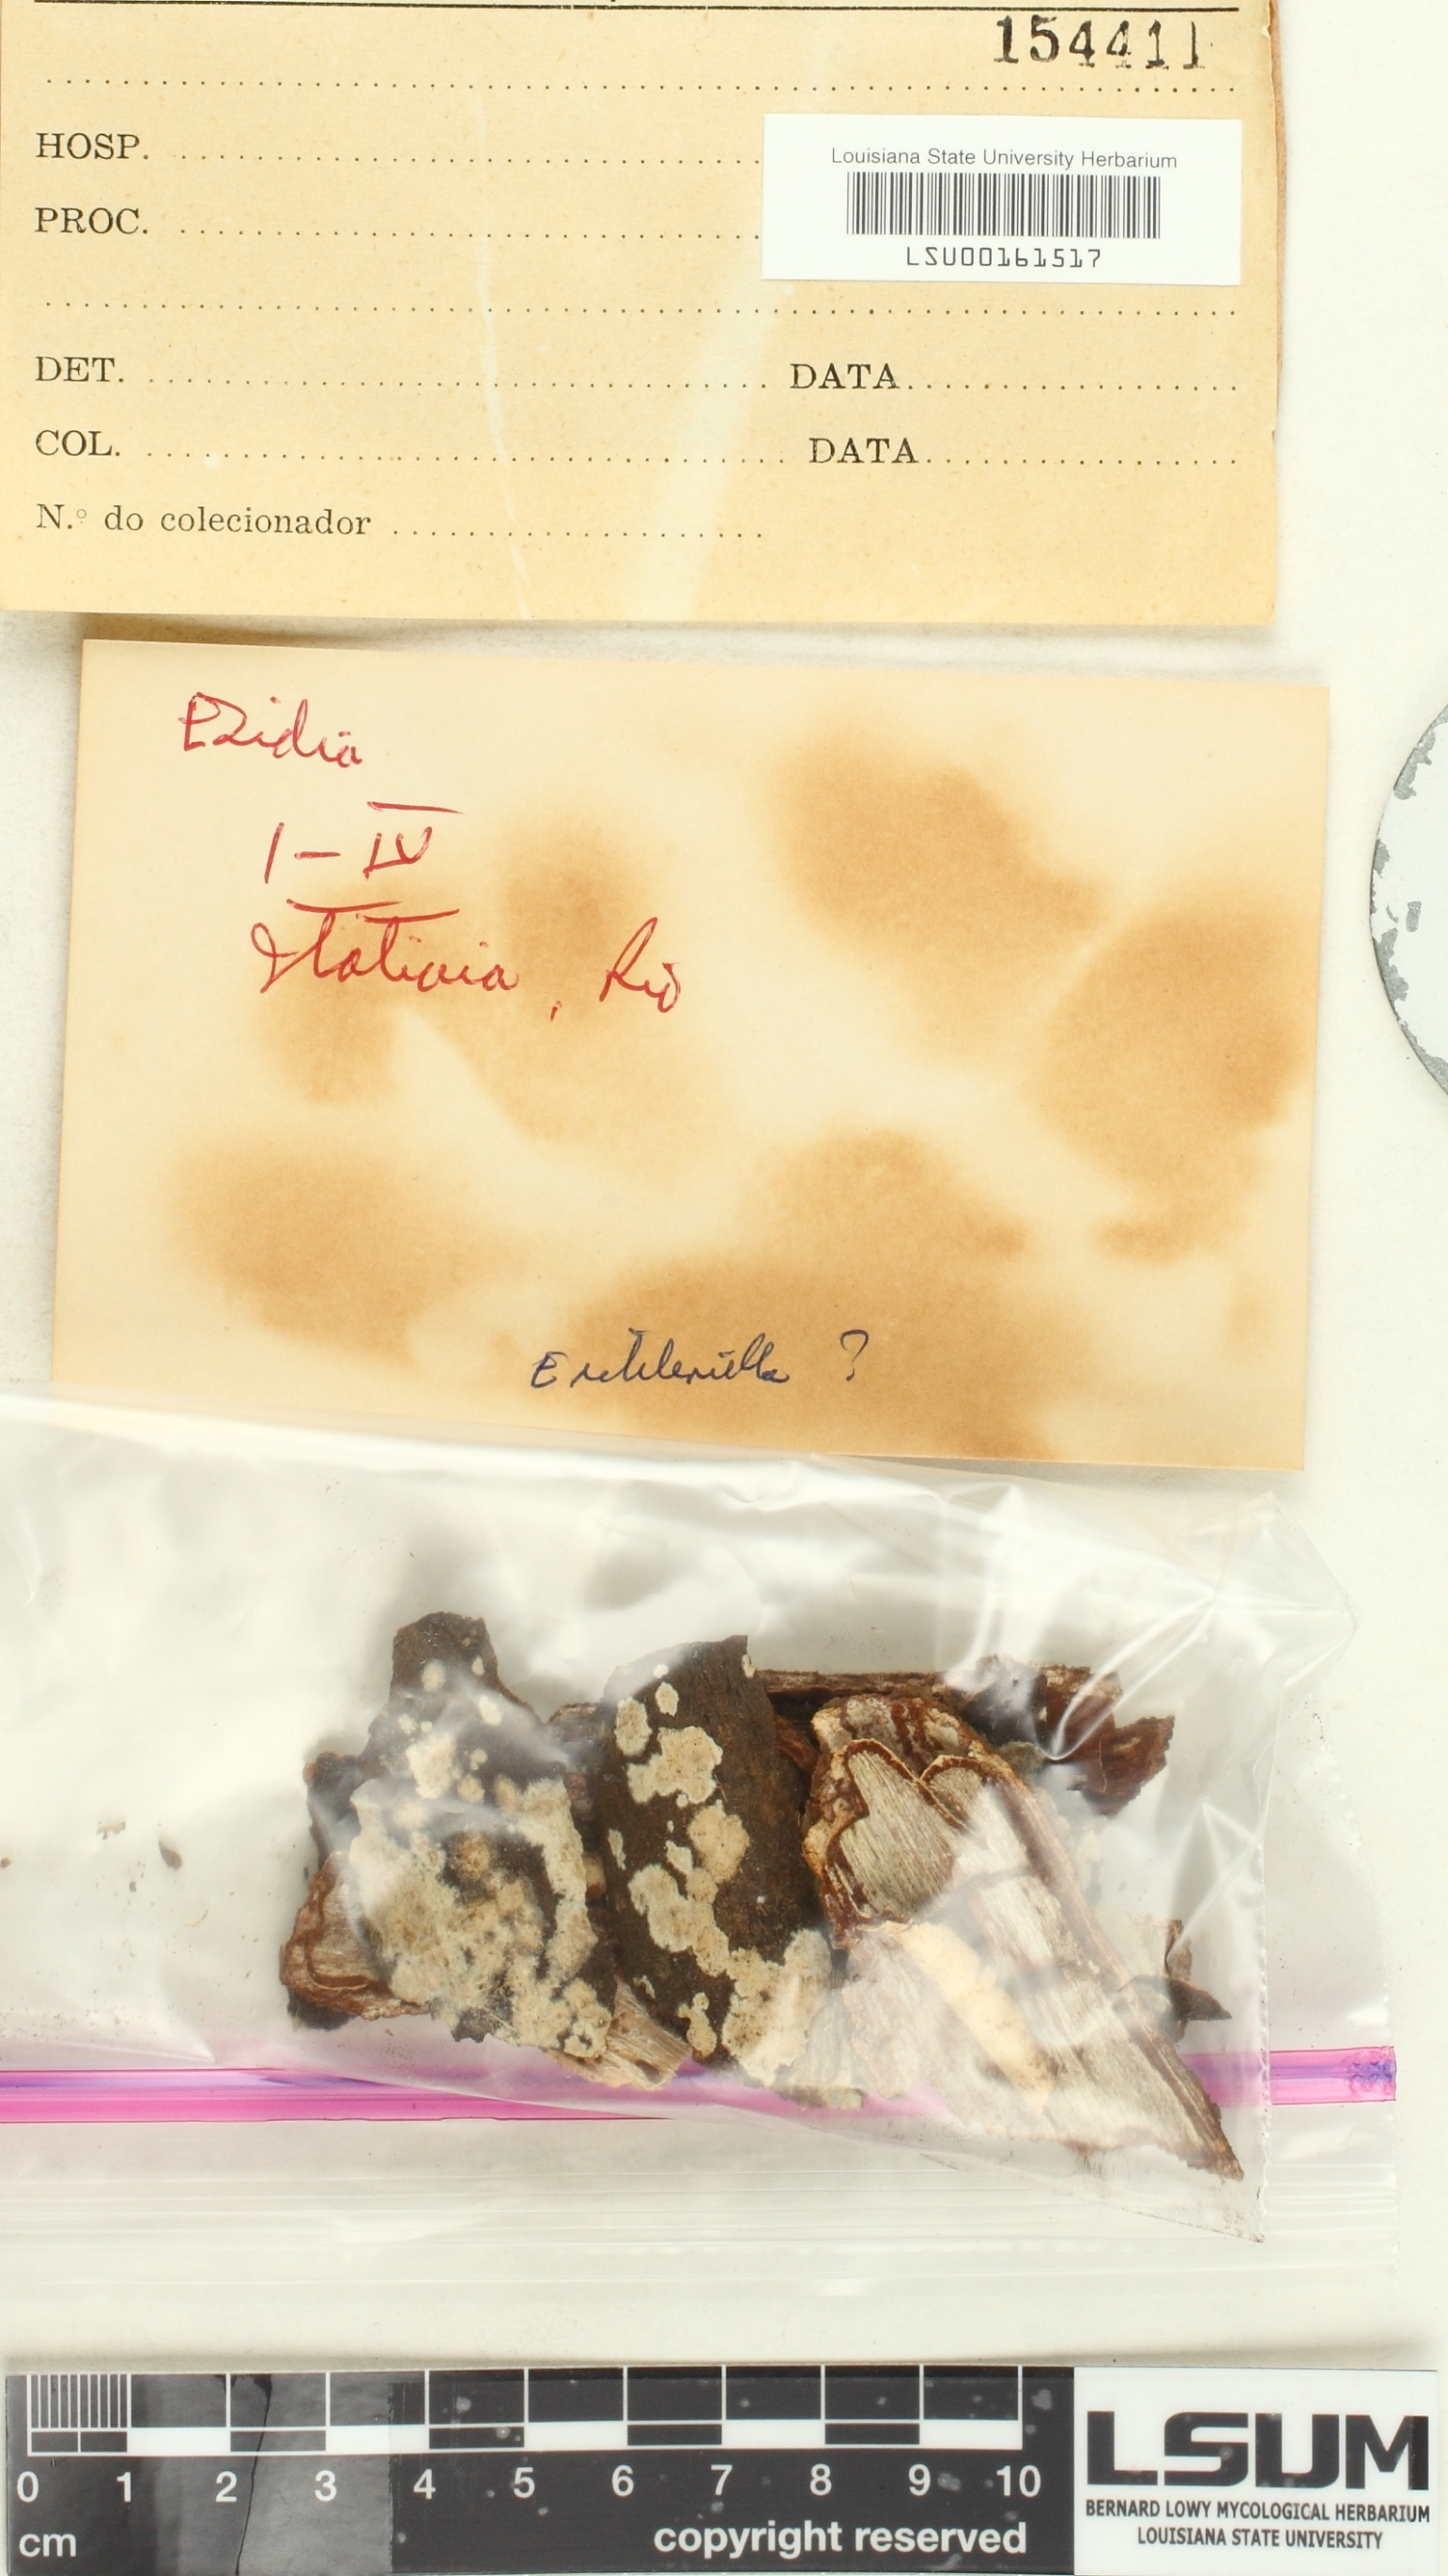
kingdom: Fungi
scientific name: Fungi
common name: Fungi
